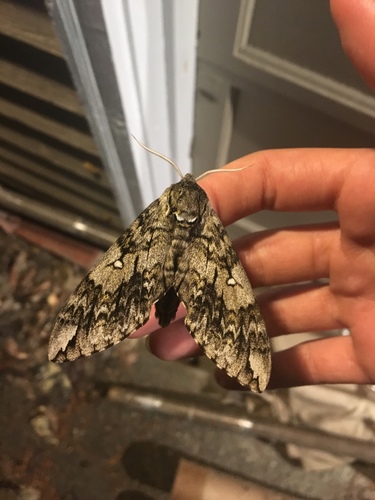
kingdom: Animalia
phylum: Arthropoda
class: Insecta
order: Lepidoptera
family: Sphingidae
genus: Ceratomia
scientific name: Ceratomia undulosa
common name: Waved sphinx
